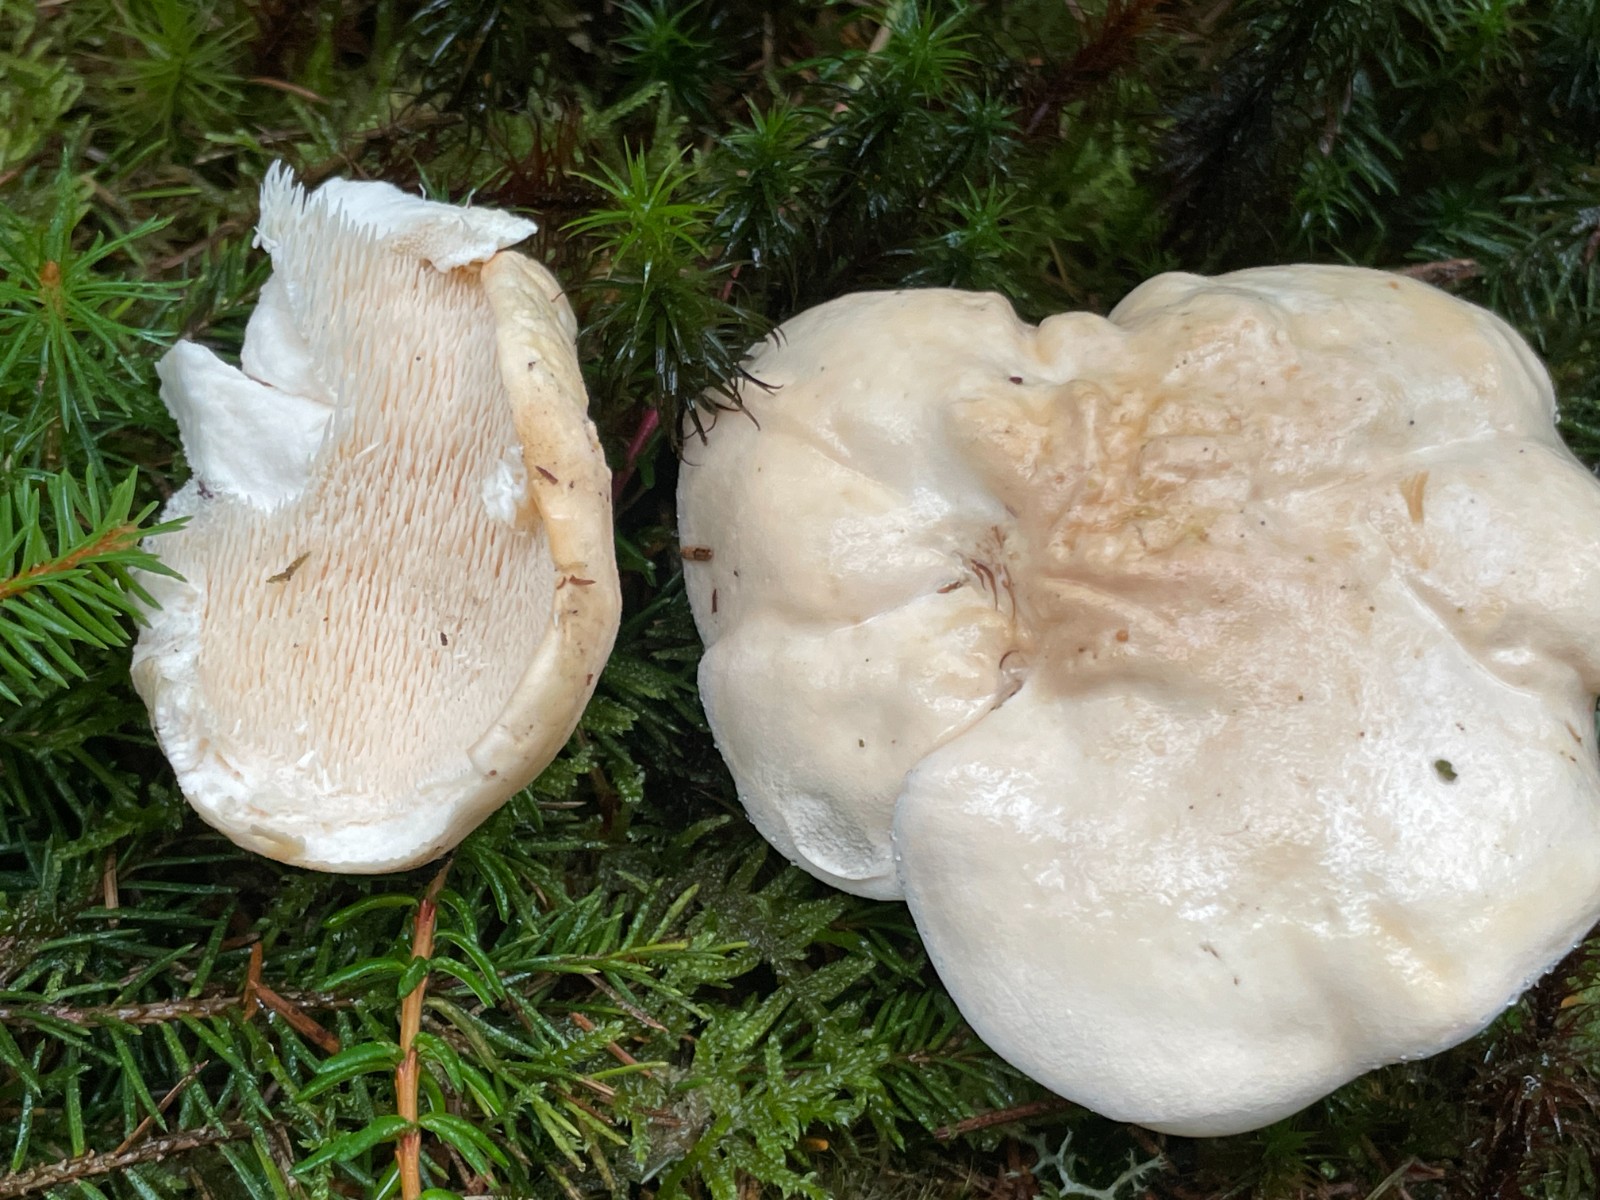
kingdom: Fungi
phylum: Basidiomycota
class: Agaricomycetes
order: Cantharellales
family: Hydnaceae
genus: Hydnum
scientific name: Hydnum repandum
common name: almindelig pigsvamp
